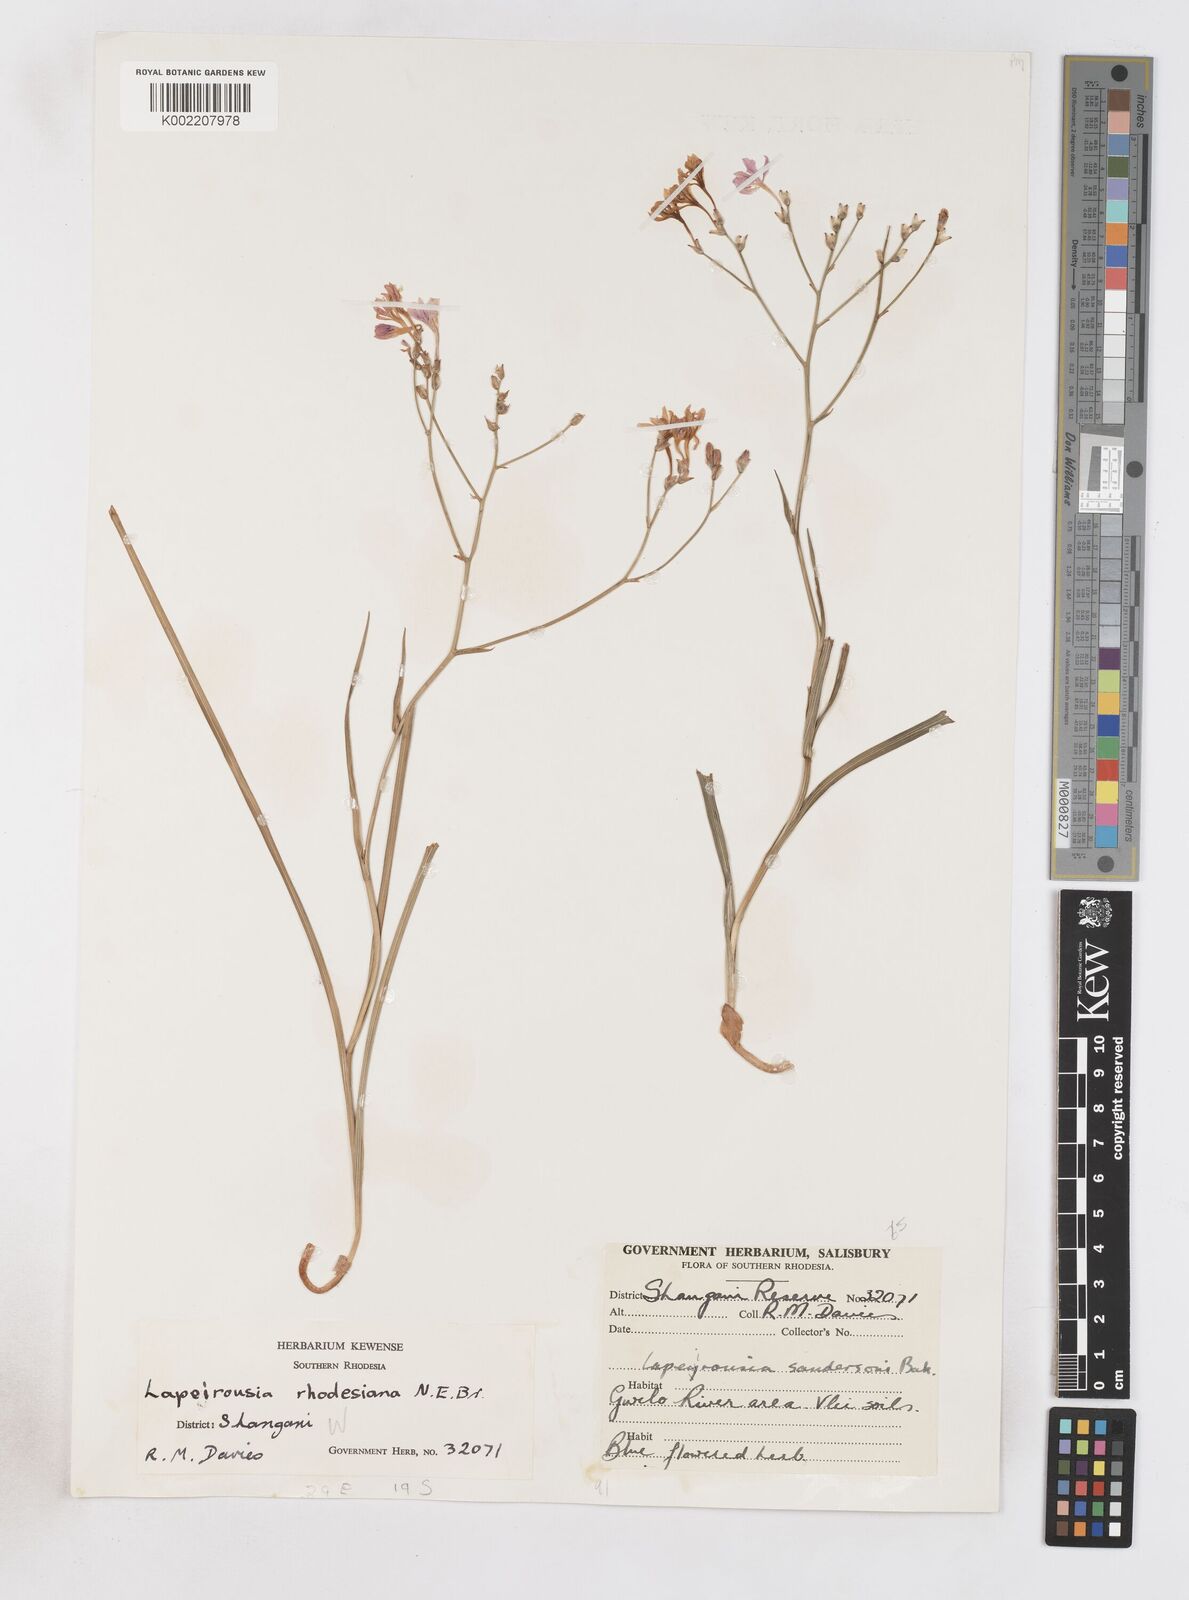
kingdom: Plantae
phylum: Tracheophyta
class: Liliopsida
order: Asparagales
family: Iridaceae
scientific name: Iridaceae
